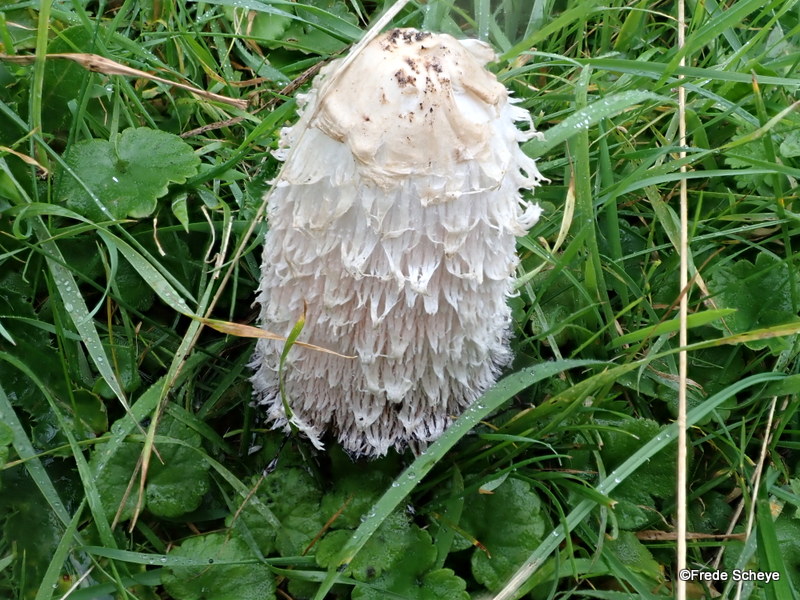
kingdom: Fungi
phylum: Basidiomycota
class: Agaricomycetes
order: Agaricales
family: Agaricaceae
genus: Coprinus
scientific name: Coprinus comatus
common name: stor parykhat
